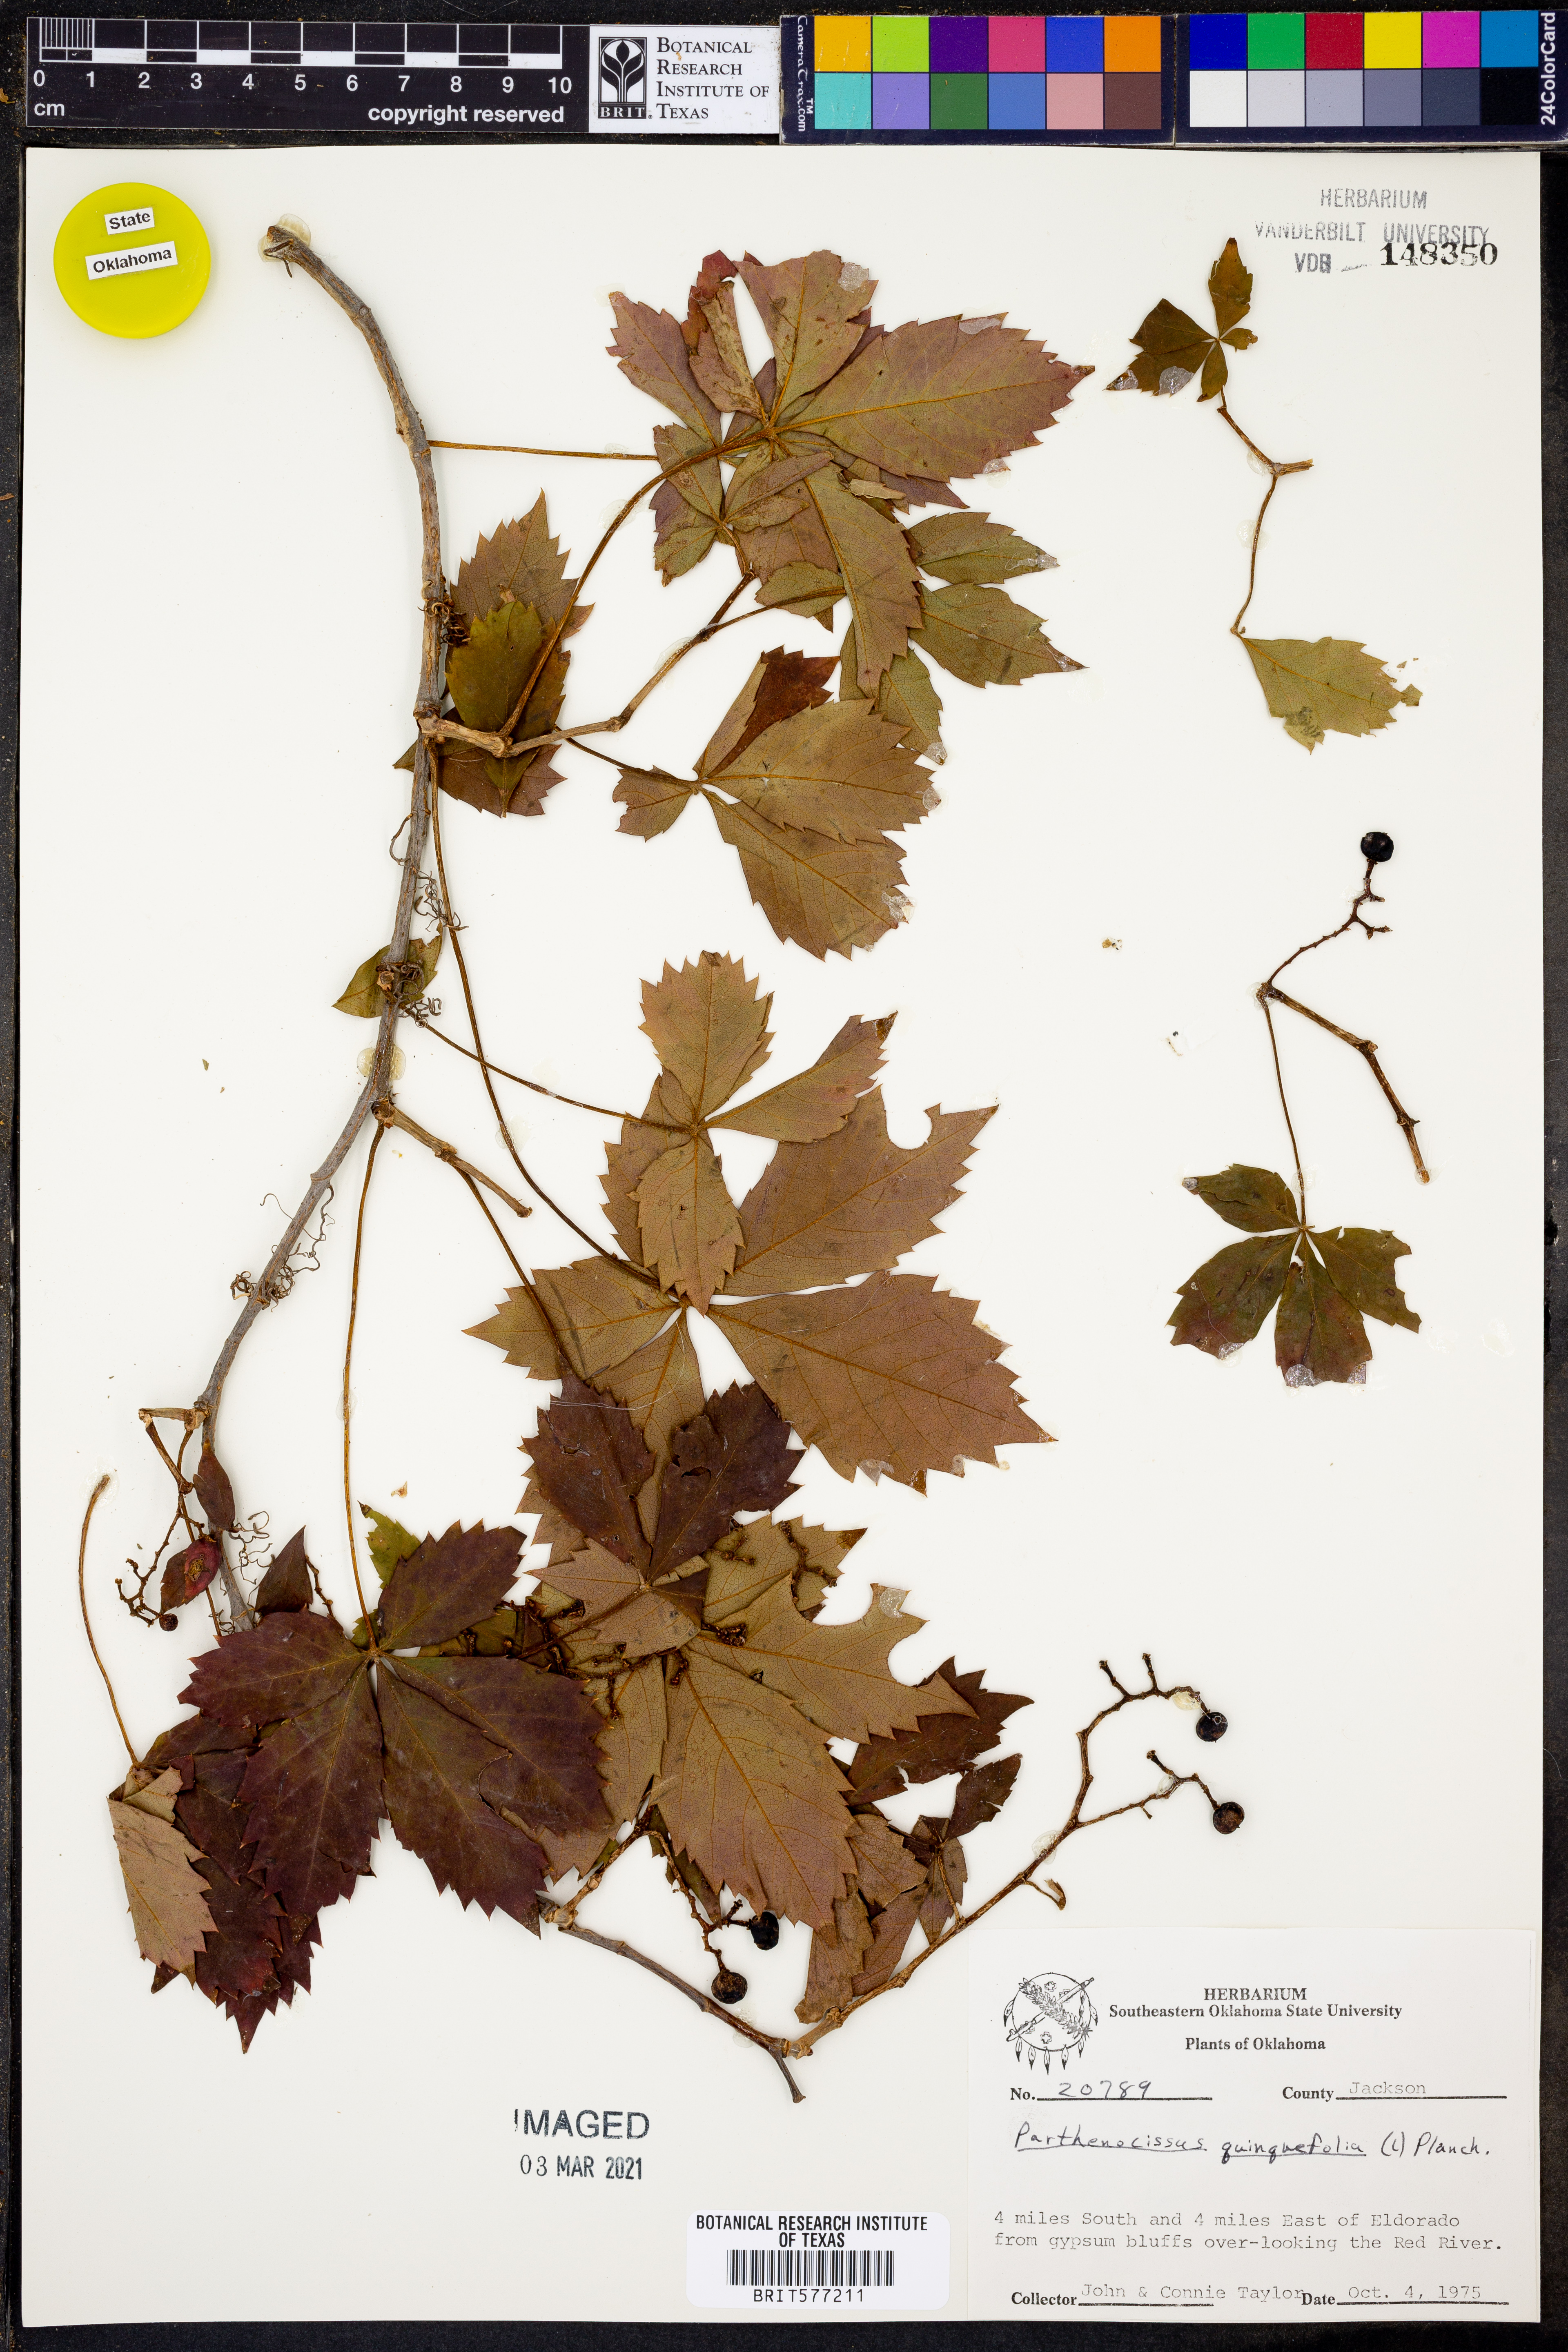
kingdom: Plantae
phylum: Tracheophyta
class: Magnoliopsida
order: Vitales
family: Vitaceae
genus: Parthenocissus
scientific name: Parthenocissus quinquefolia
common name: Virginia-creeper
